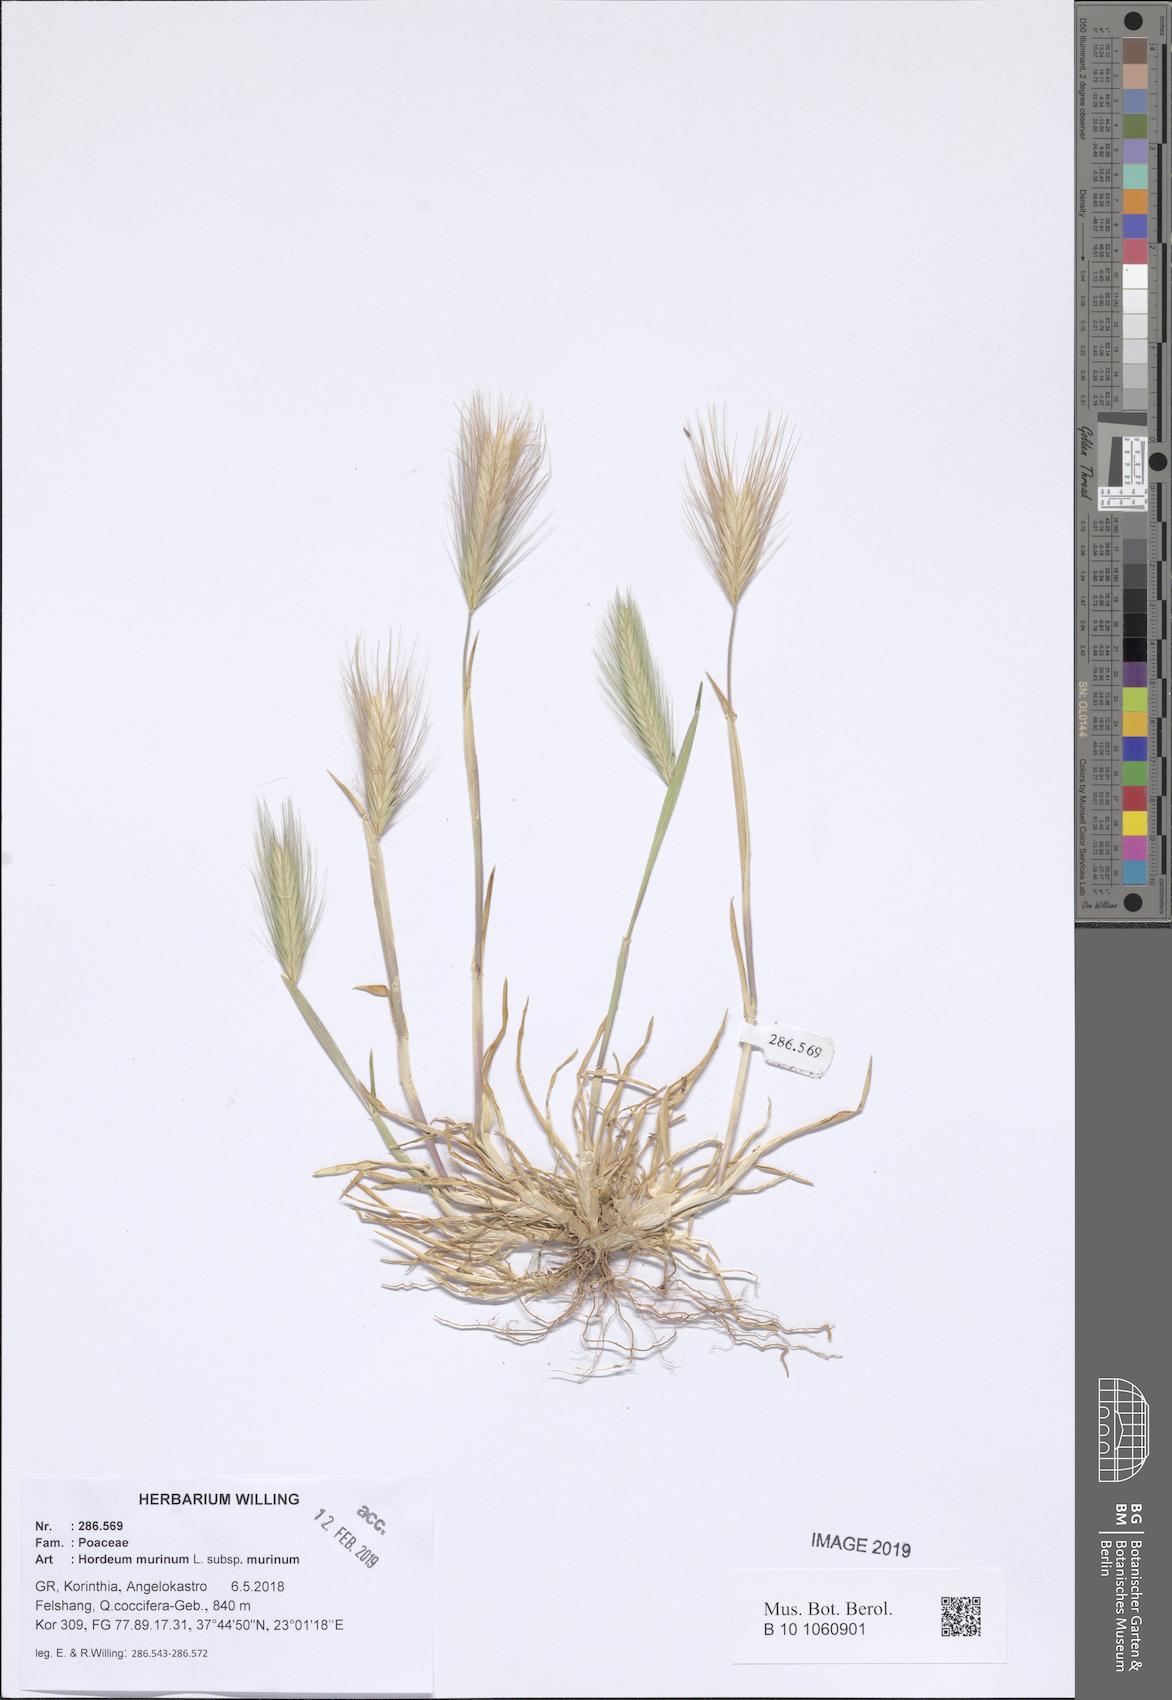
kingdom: Plantae
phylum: Tracheophyta
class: Liliopsida
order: Poales
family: Poaceae
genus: Hordeum
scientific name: Hordeum murinum
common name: Wall barley
